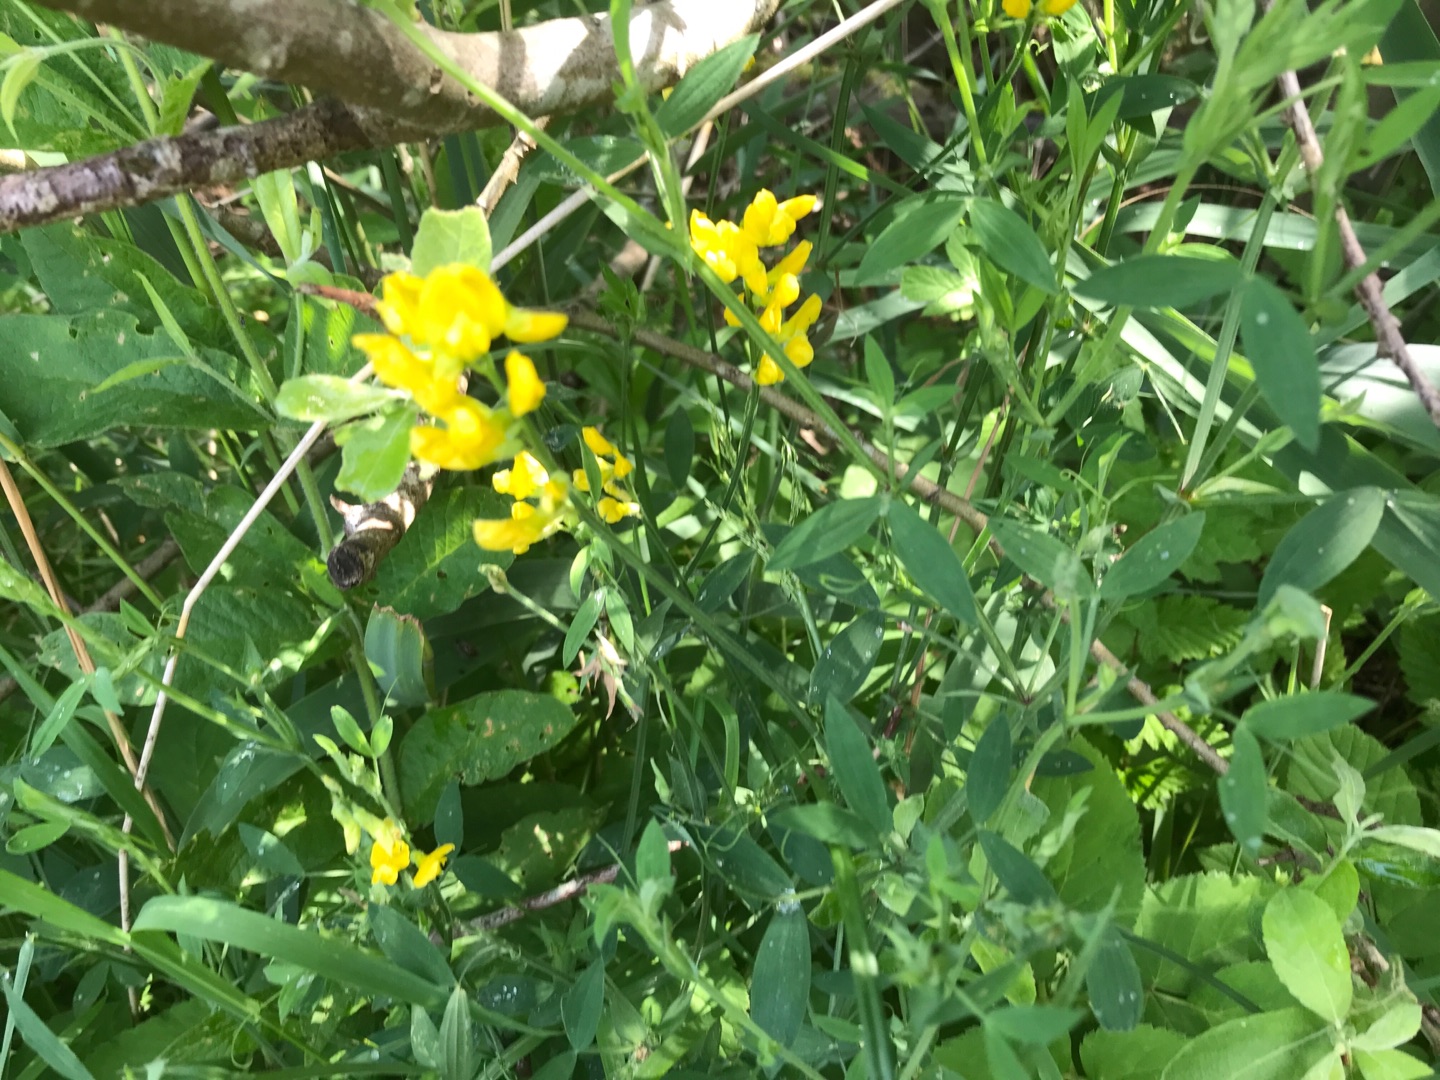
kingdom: Plantae
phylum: Tracheophyta
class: Magnoliopsida
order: Fabales
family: Fabaceae
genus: Lathyrus
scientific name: Lathyrus pratensis
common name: Gul fladbælg
